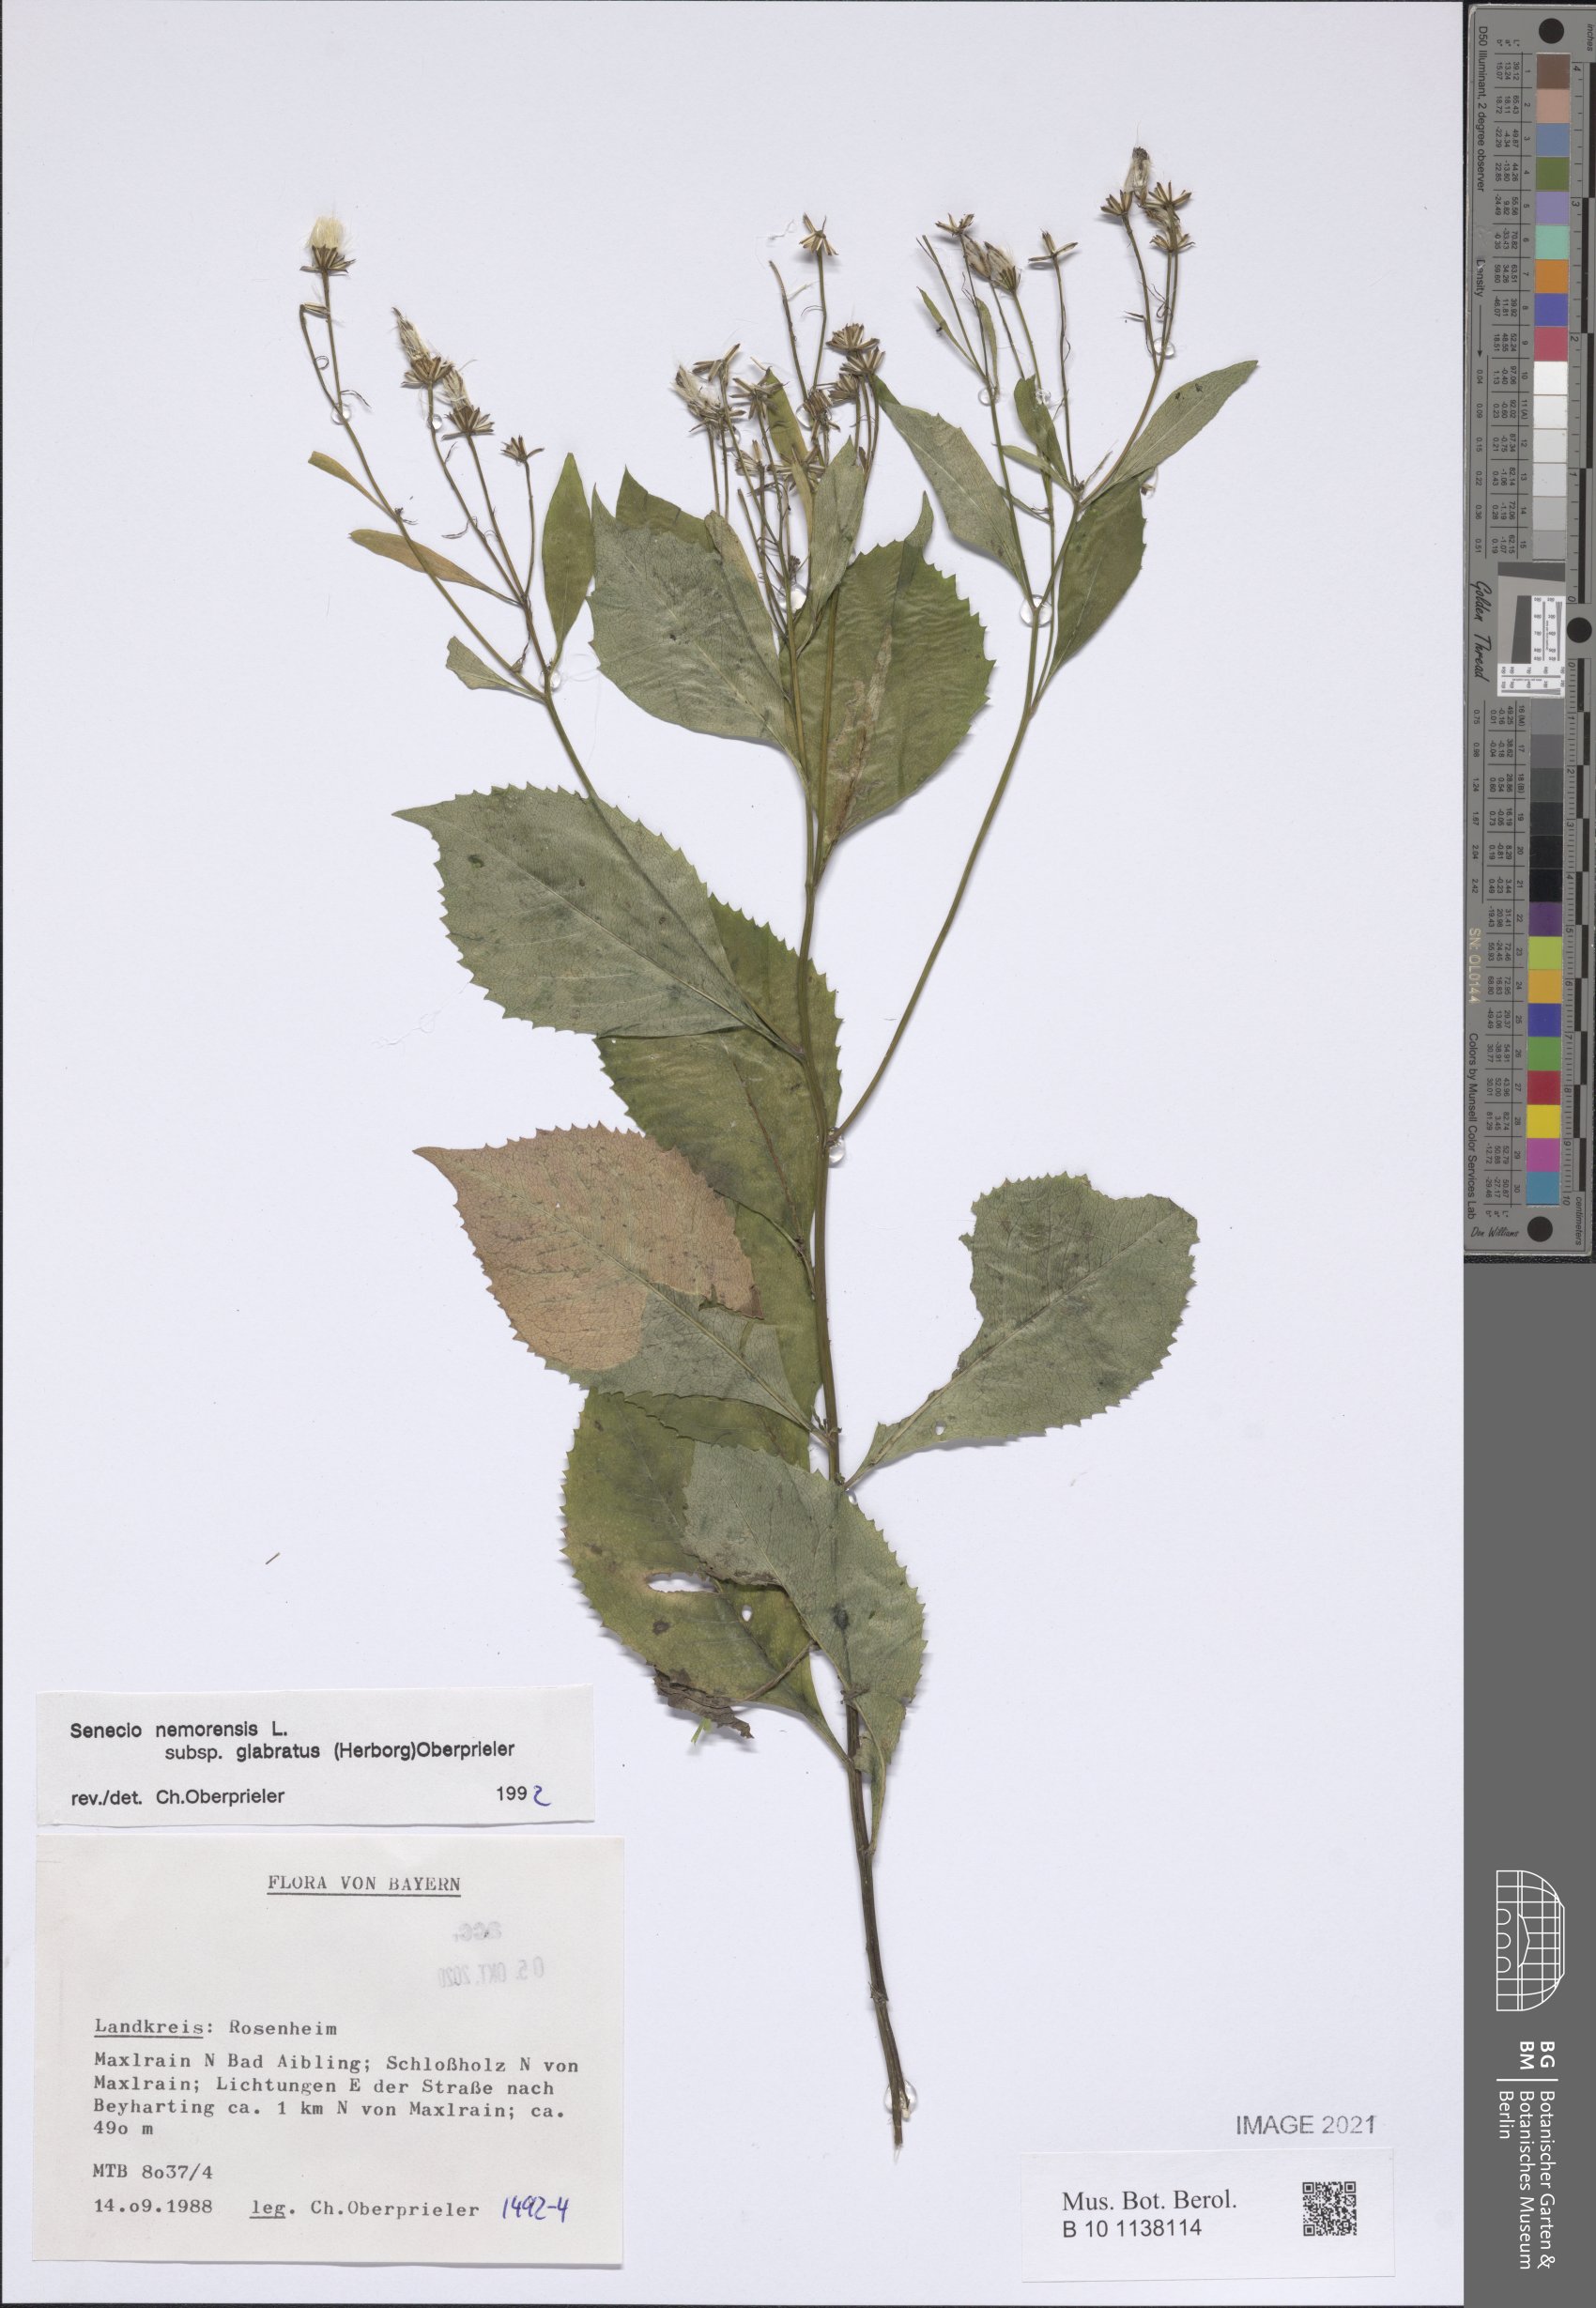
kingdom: Plantae
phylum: Tracheophyta
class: Magnoliopsida
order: Asterales
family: Asteraceae
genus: Senecio
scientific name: Senecio germanicus
